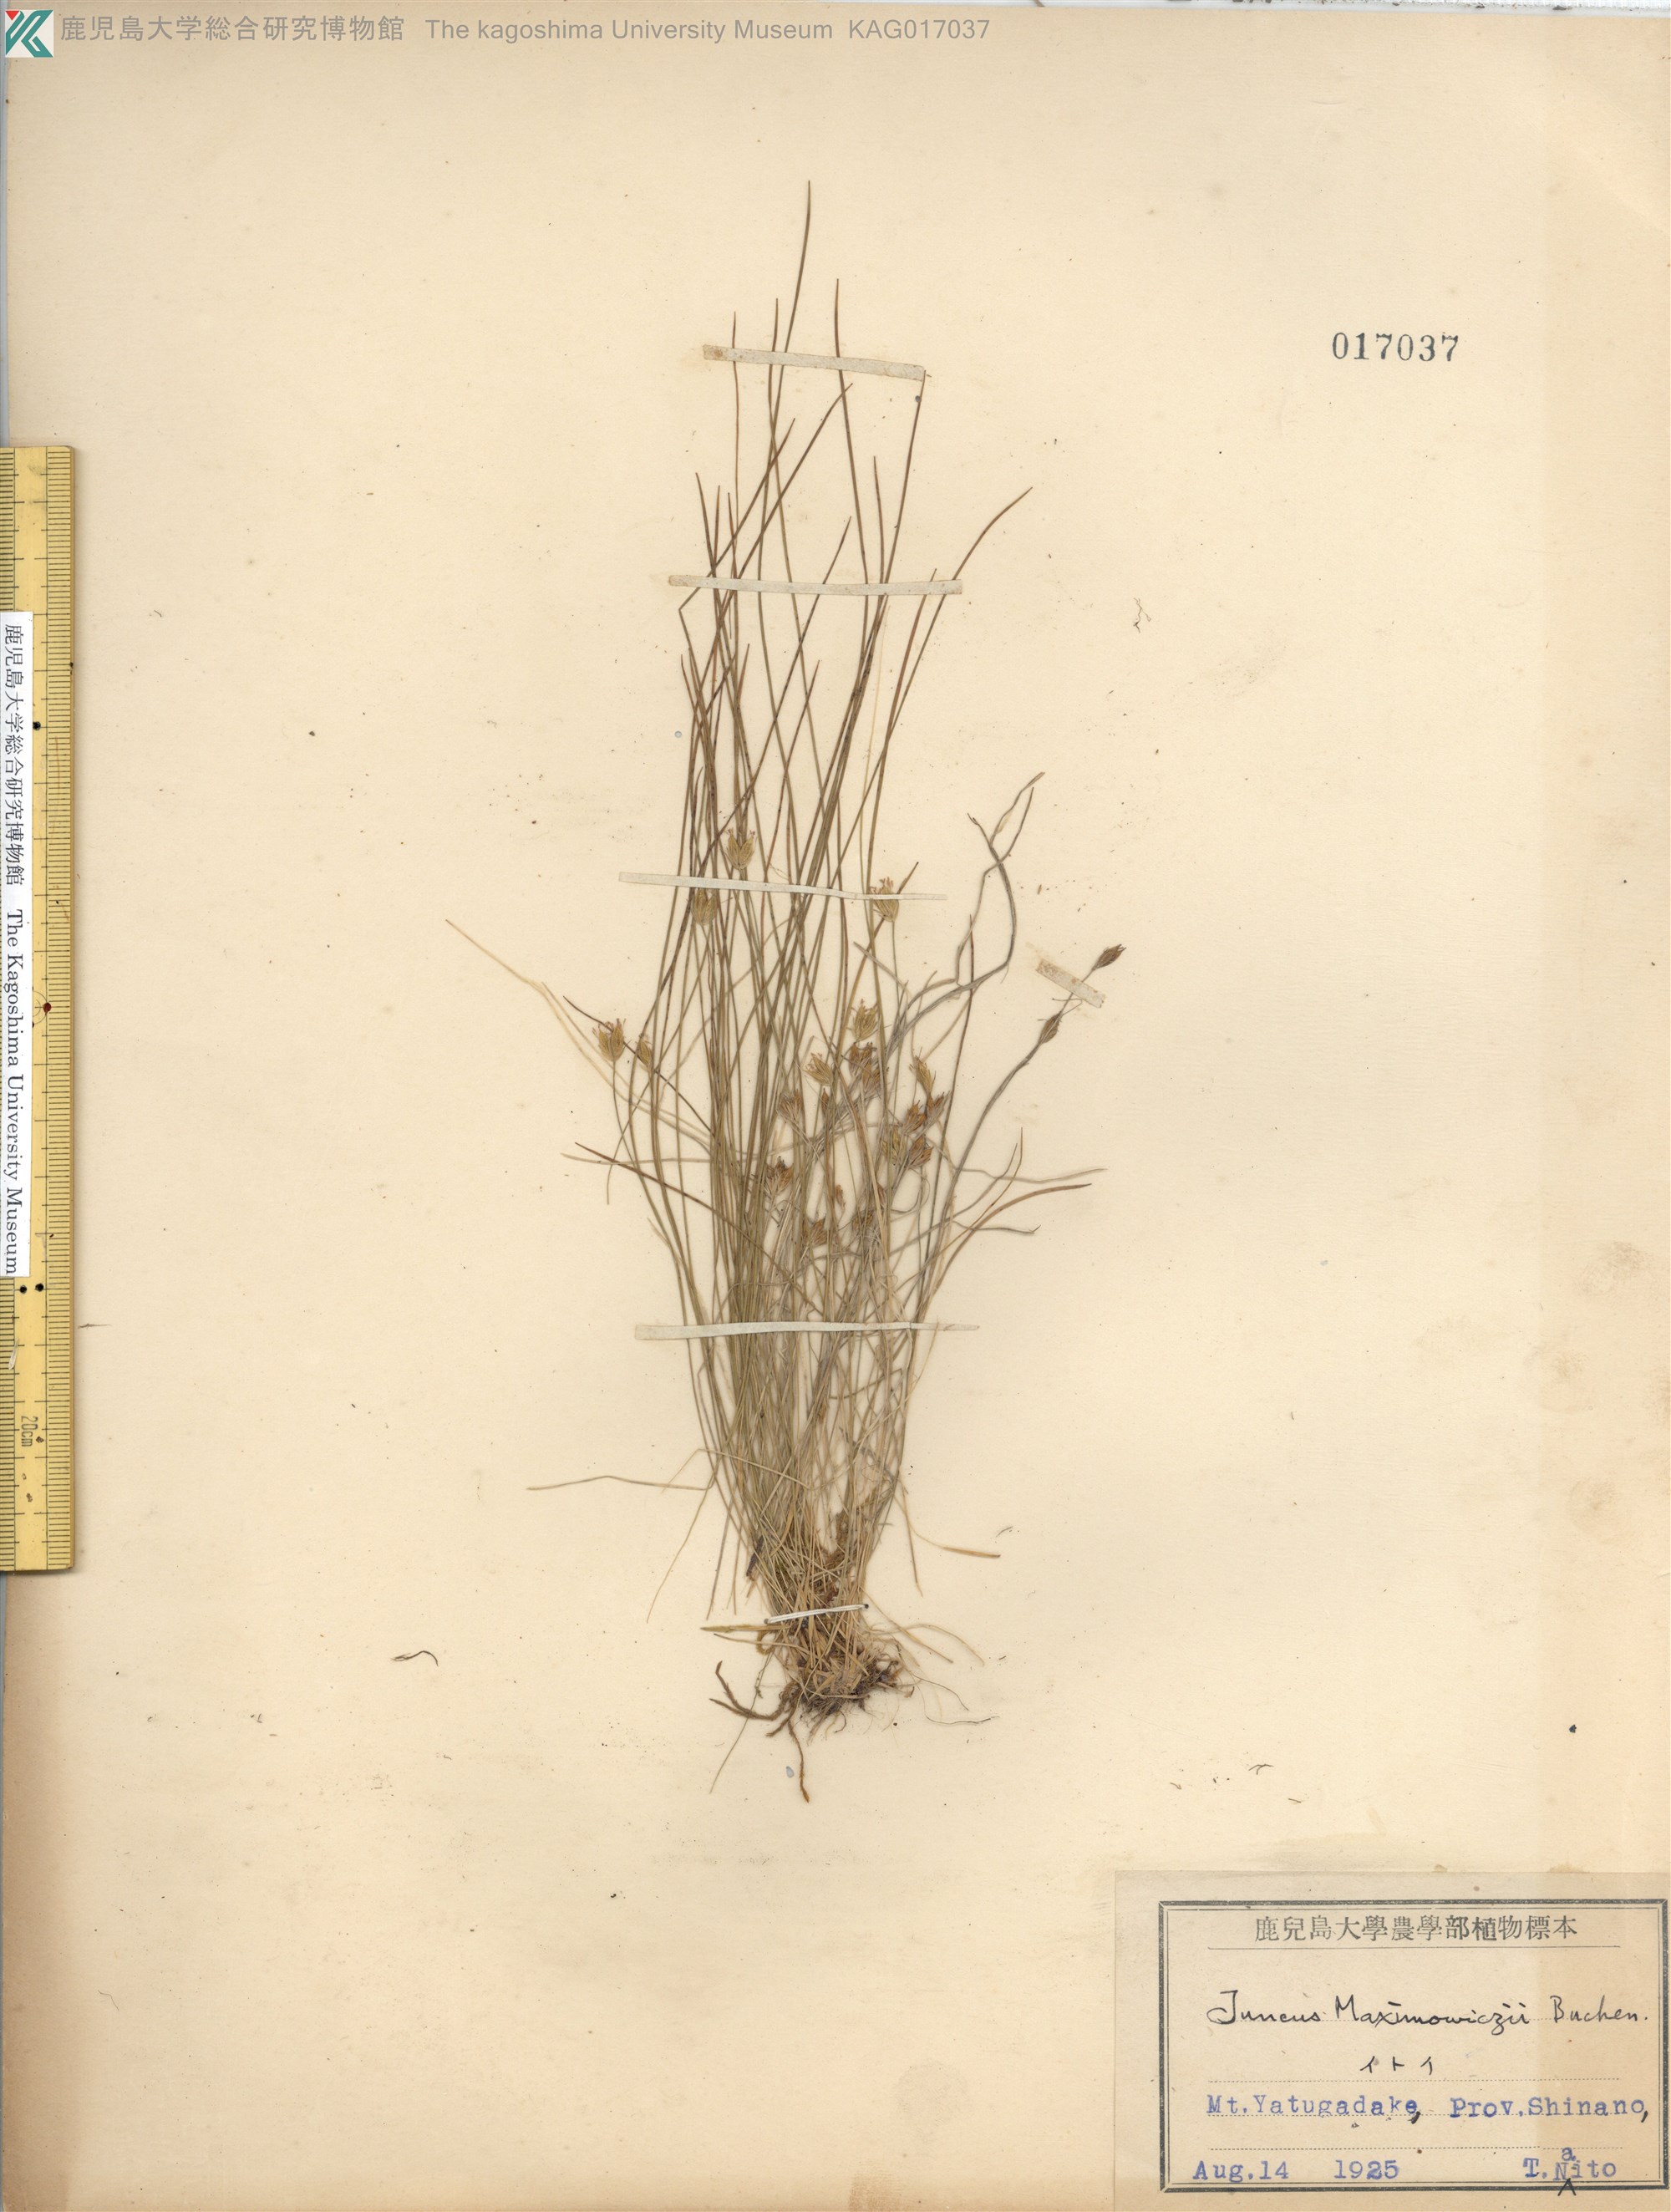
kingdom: Plantae
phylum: Tracheophyta
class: Liliopsida
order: Poales
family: Juncaceae
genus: Juncus
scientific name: Juncus maximowiczii
